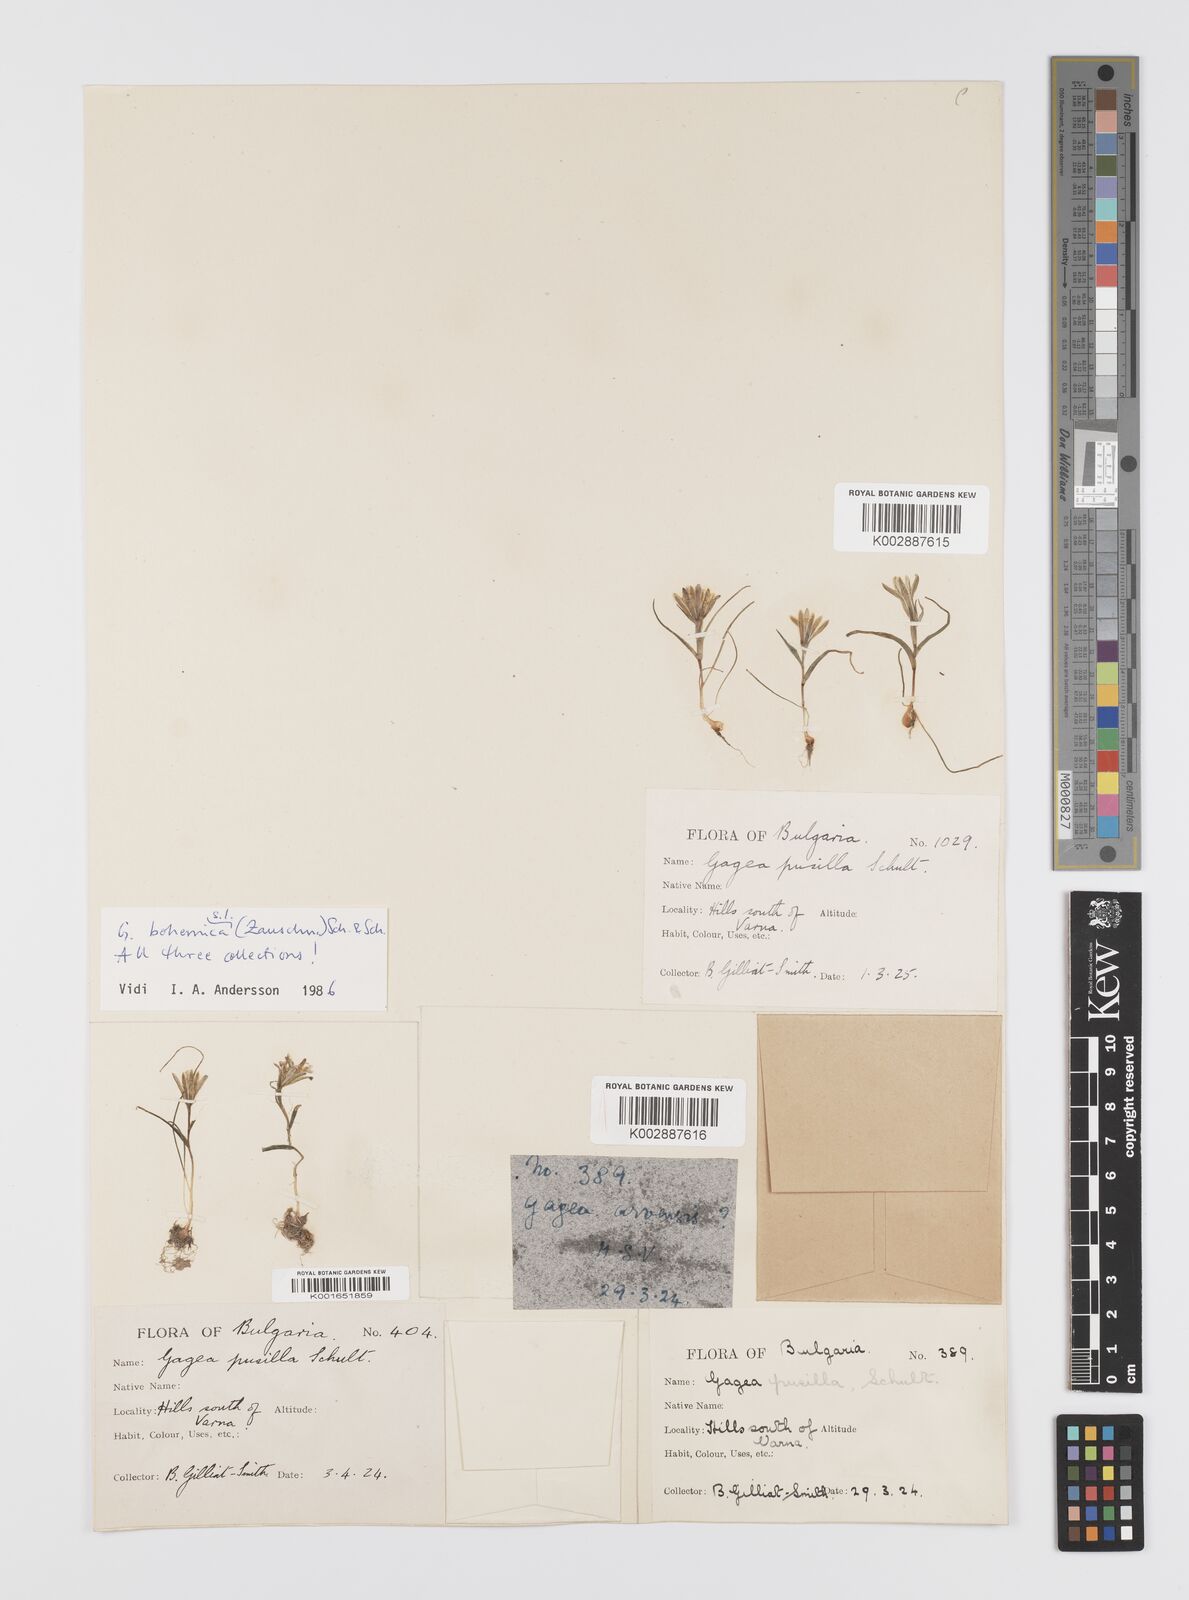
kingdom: Plantae
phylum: Tracheophyta
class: Liliopsida
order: Liliales
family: Liliaceae
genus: Gagea
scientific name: Gagea pusilla
